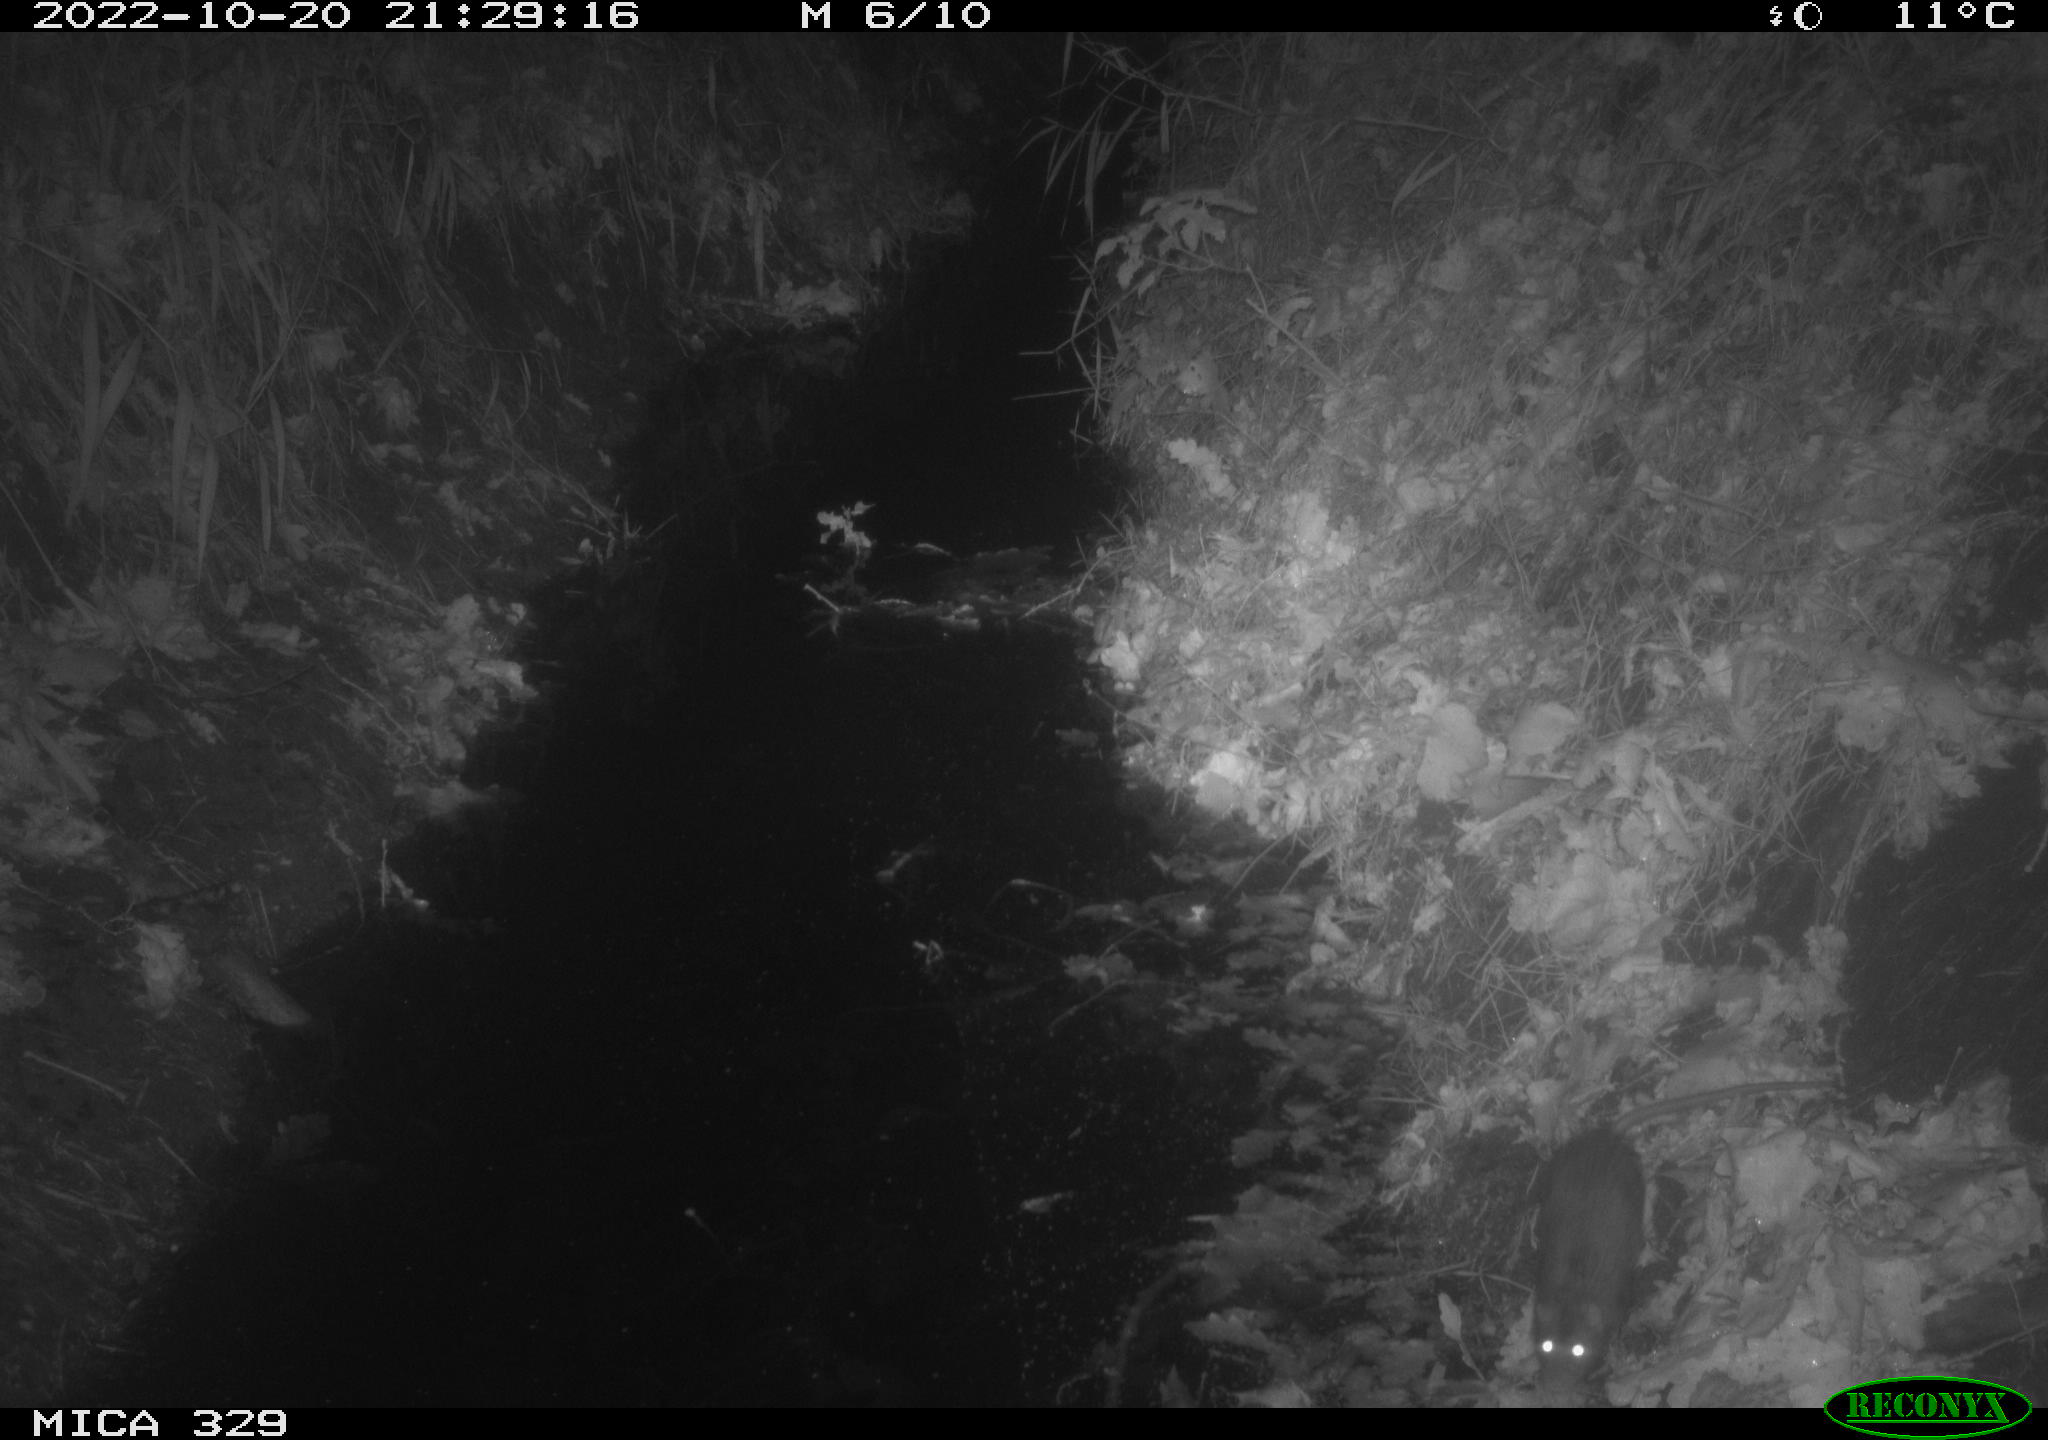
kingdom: Animalia
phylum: Chordata
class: Mammalia
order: Rodentia
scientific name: Rodentia
